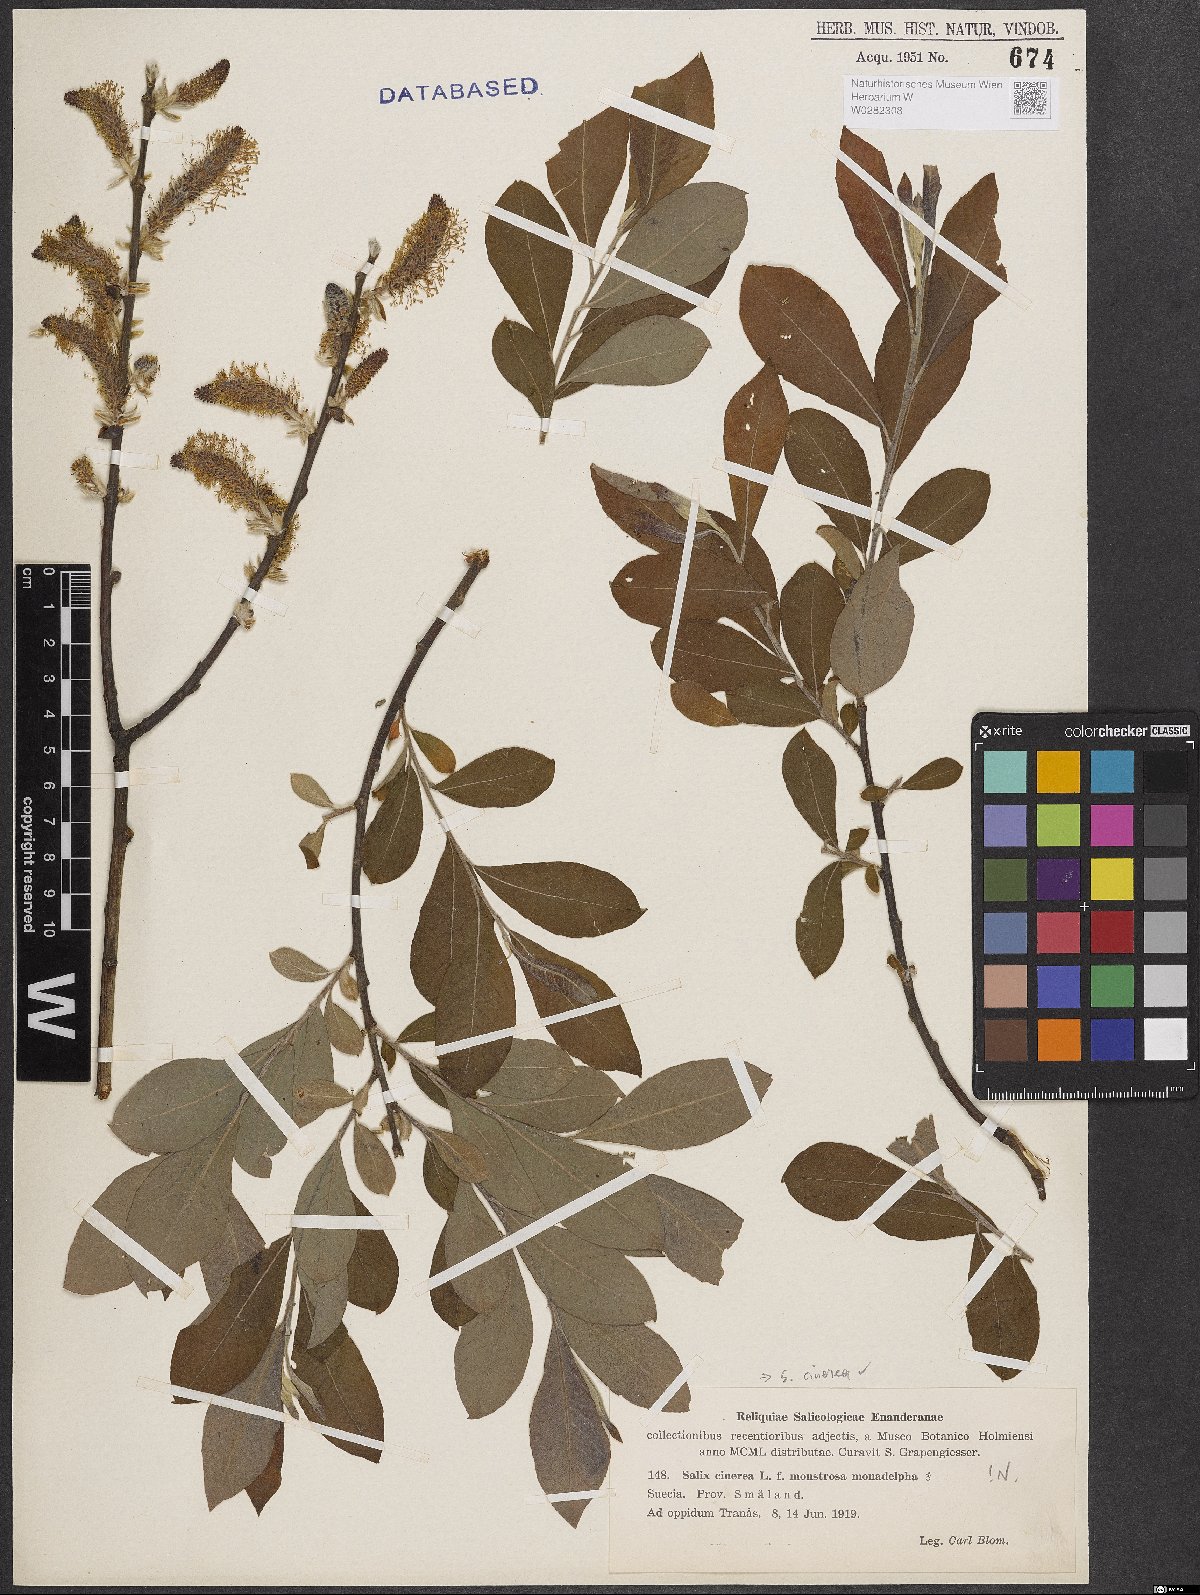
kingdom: Plantae
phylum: Tracheophyta
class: Magnoliopsida
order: Malpighiales
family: Salicaceae
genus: Salix
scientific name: Salix cinerea
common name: Common sallow
